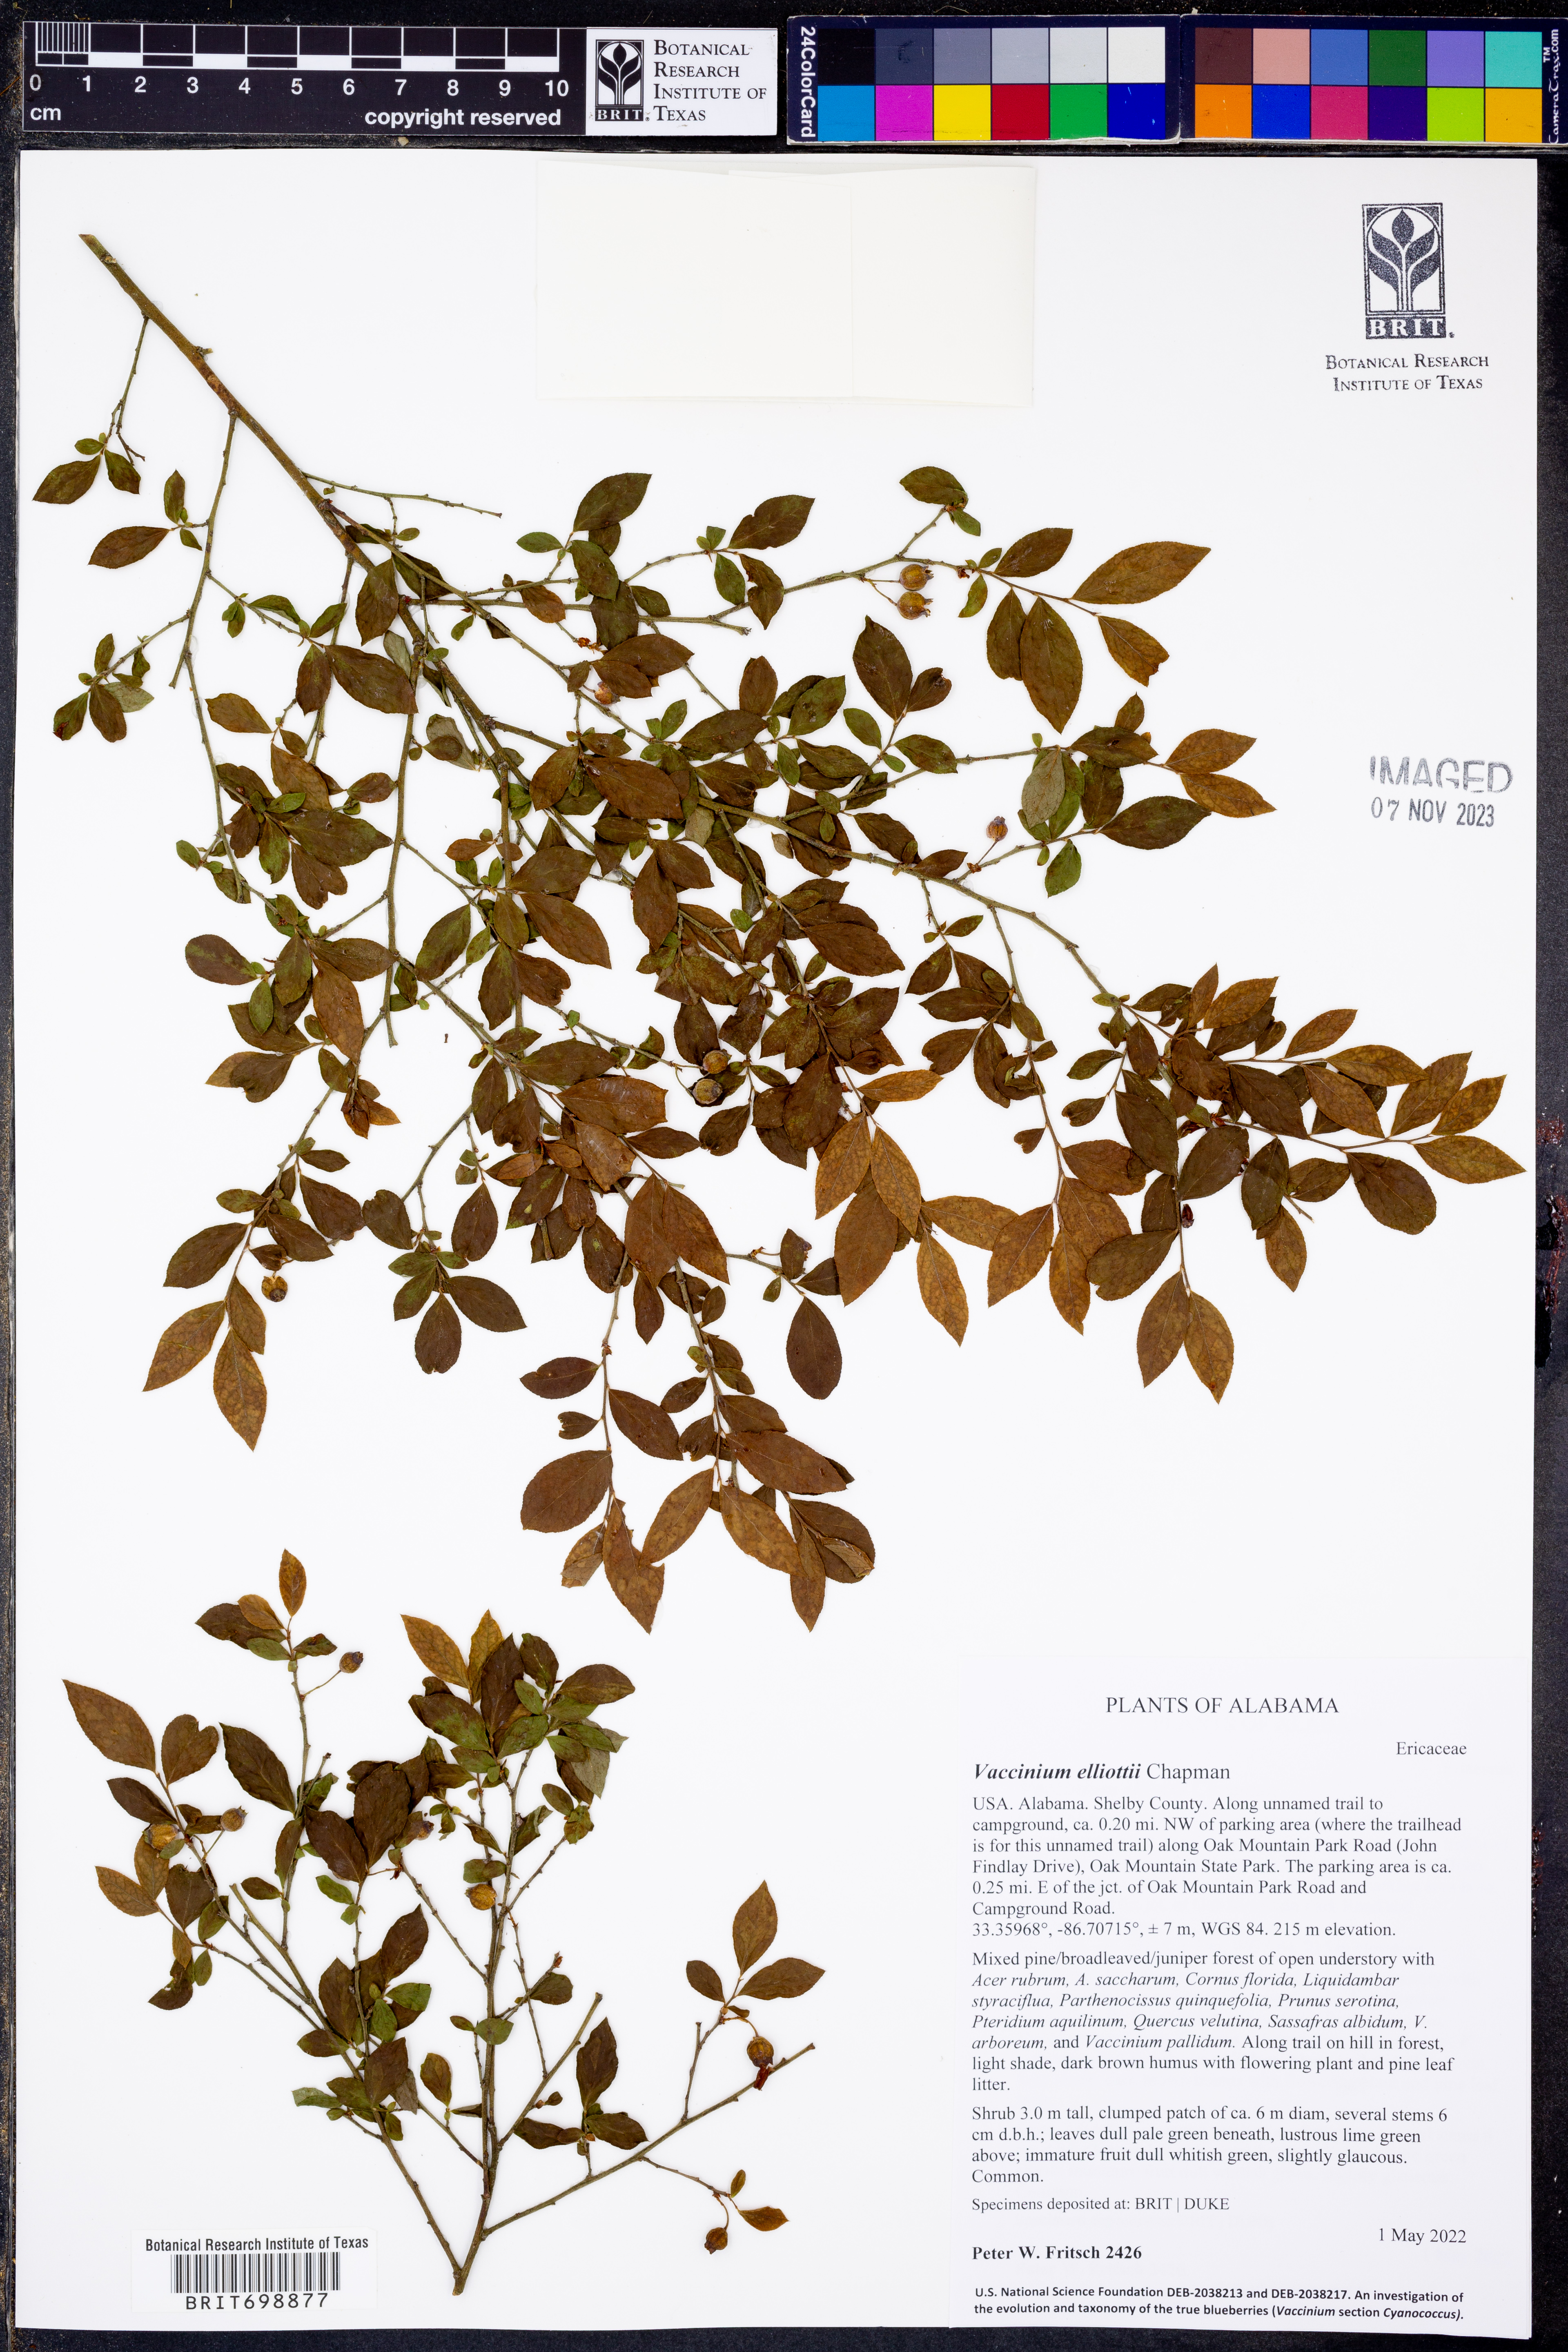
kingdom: Plantae
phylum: Tracheophyta
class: Magnoliopsida
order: Ericales
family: Ericaceae
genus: Vaccinium
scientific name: Vaccinium corymbosum
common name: Blueberry
